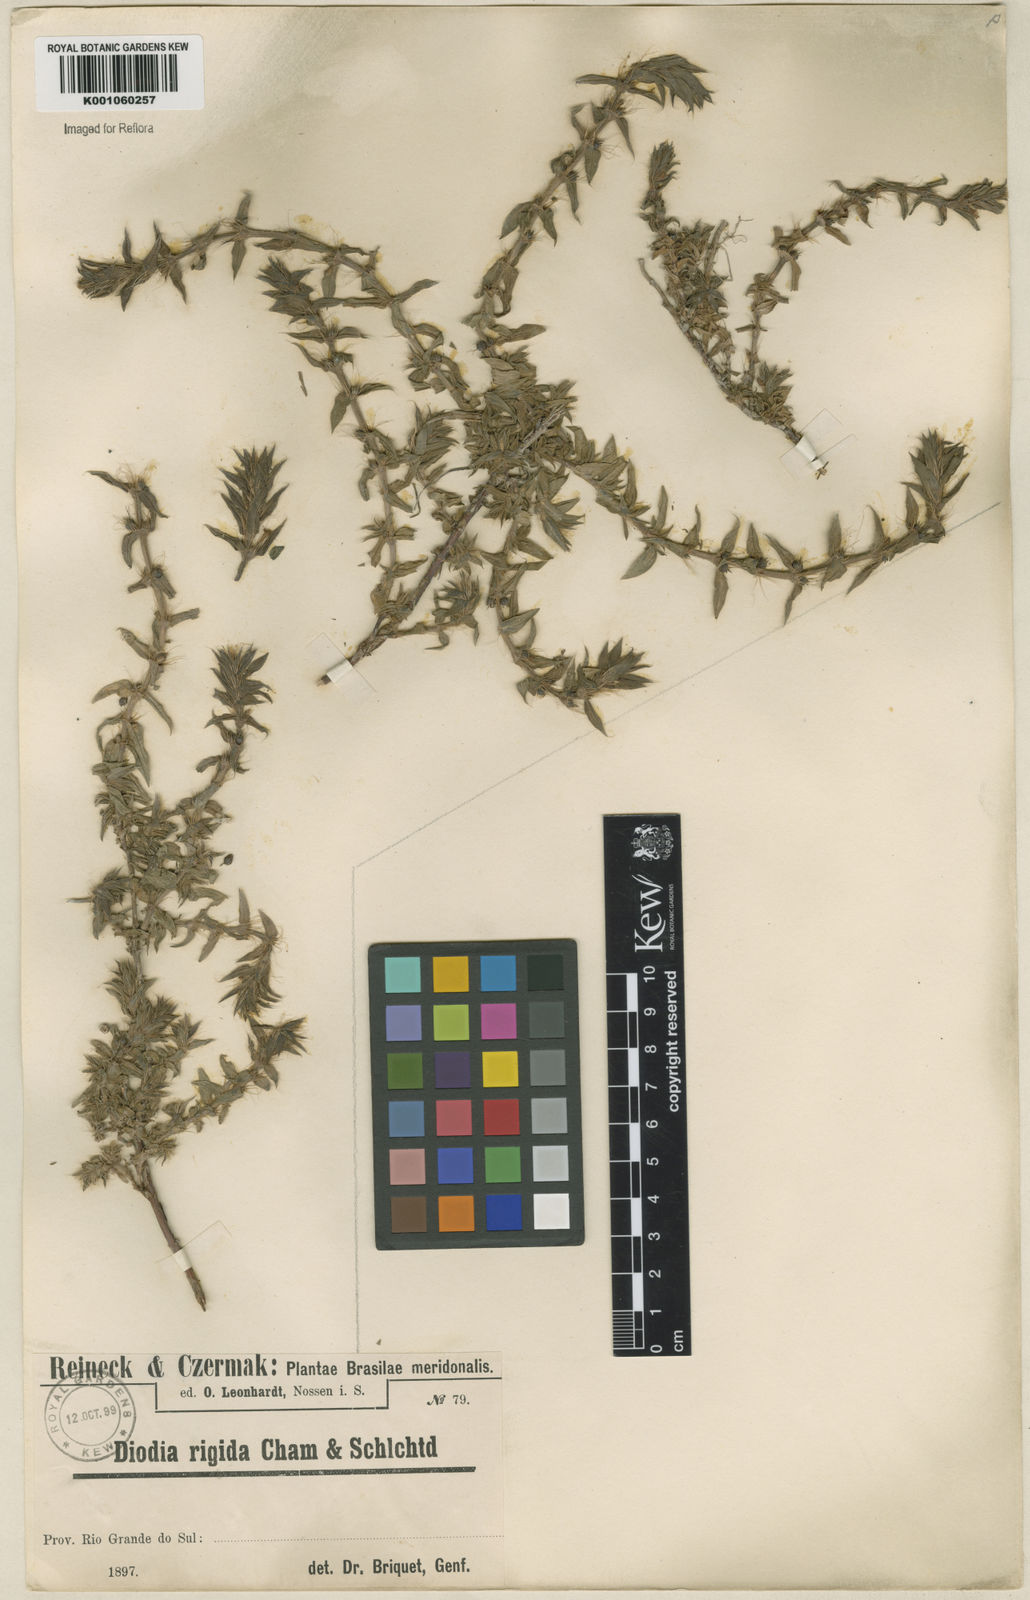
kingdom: Plantae
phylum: Tracheophyta
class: Magnoliopsida
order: Gentianales
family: Rubiaceae
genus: Hexasepalum
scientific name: Hexasepalum apiculatum
